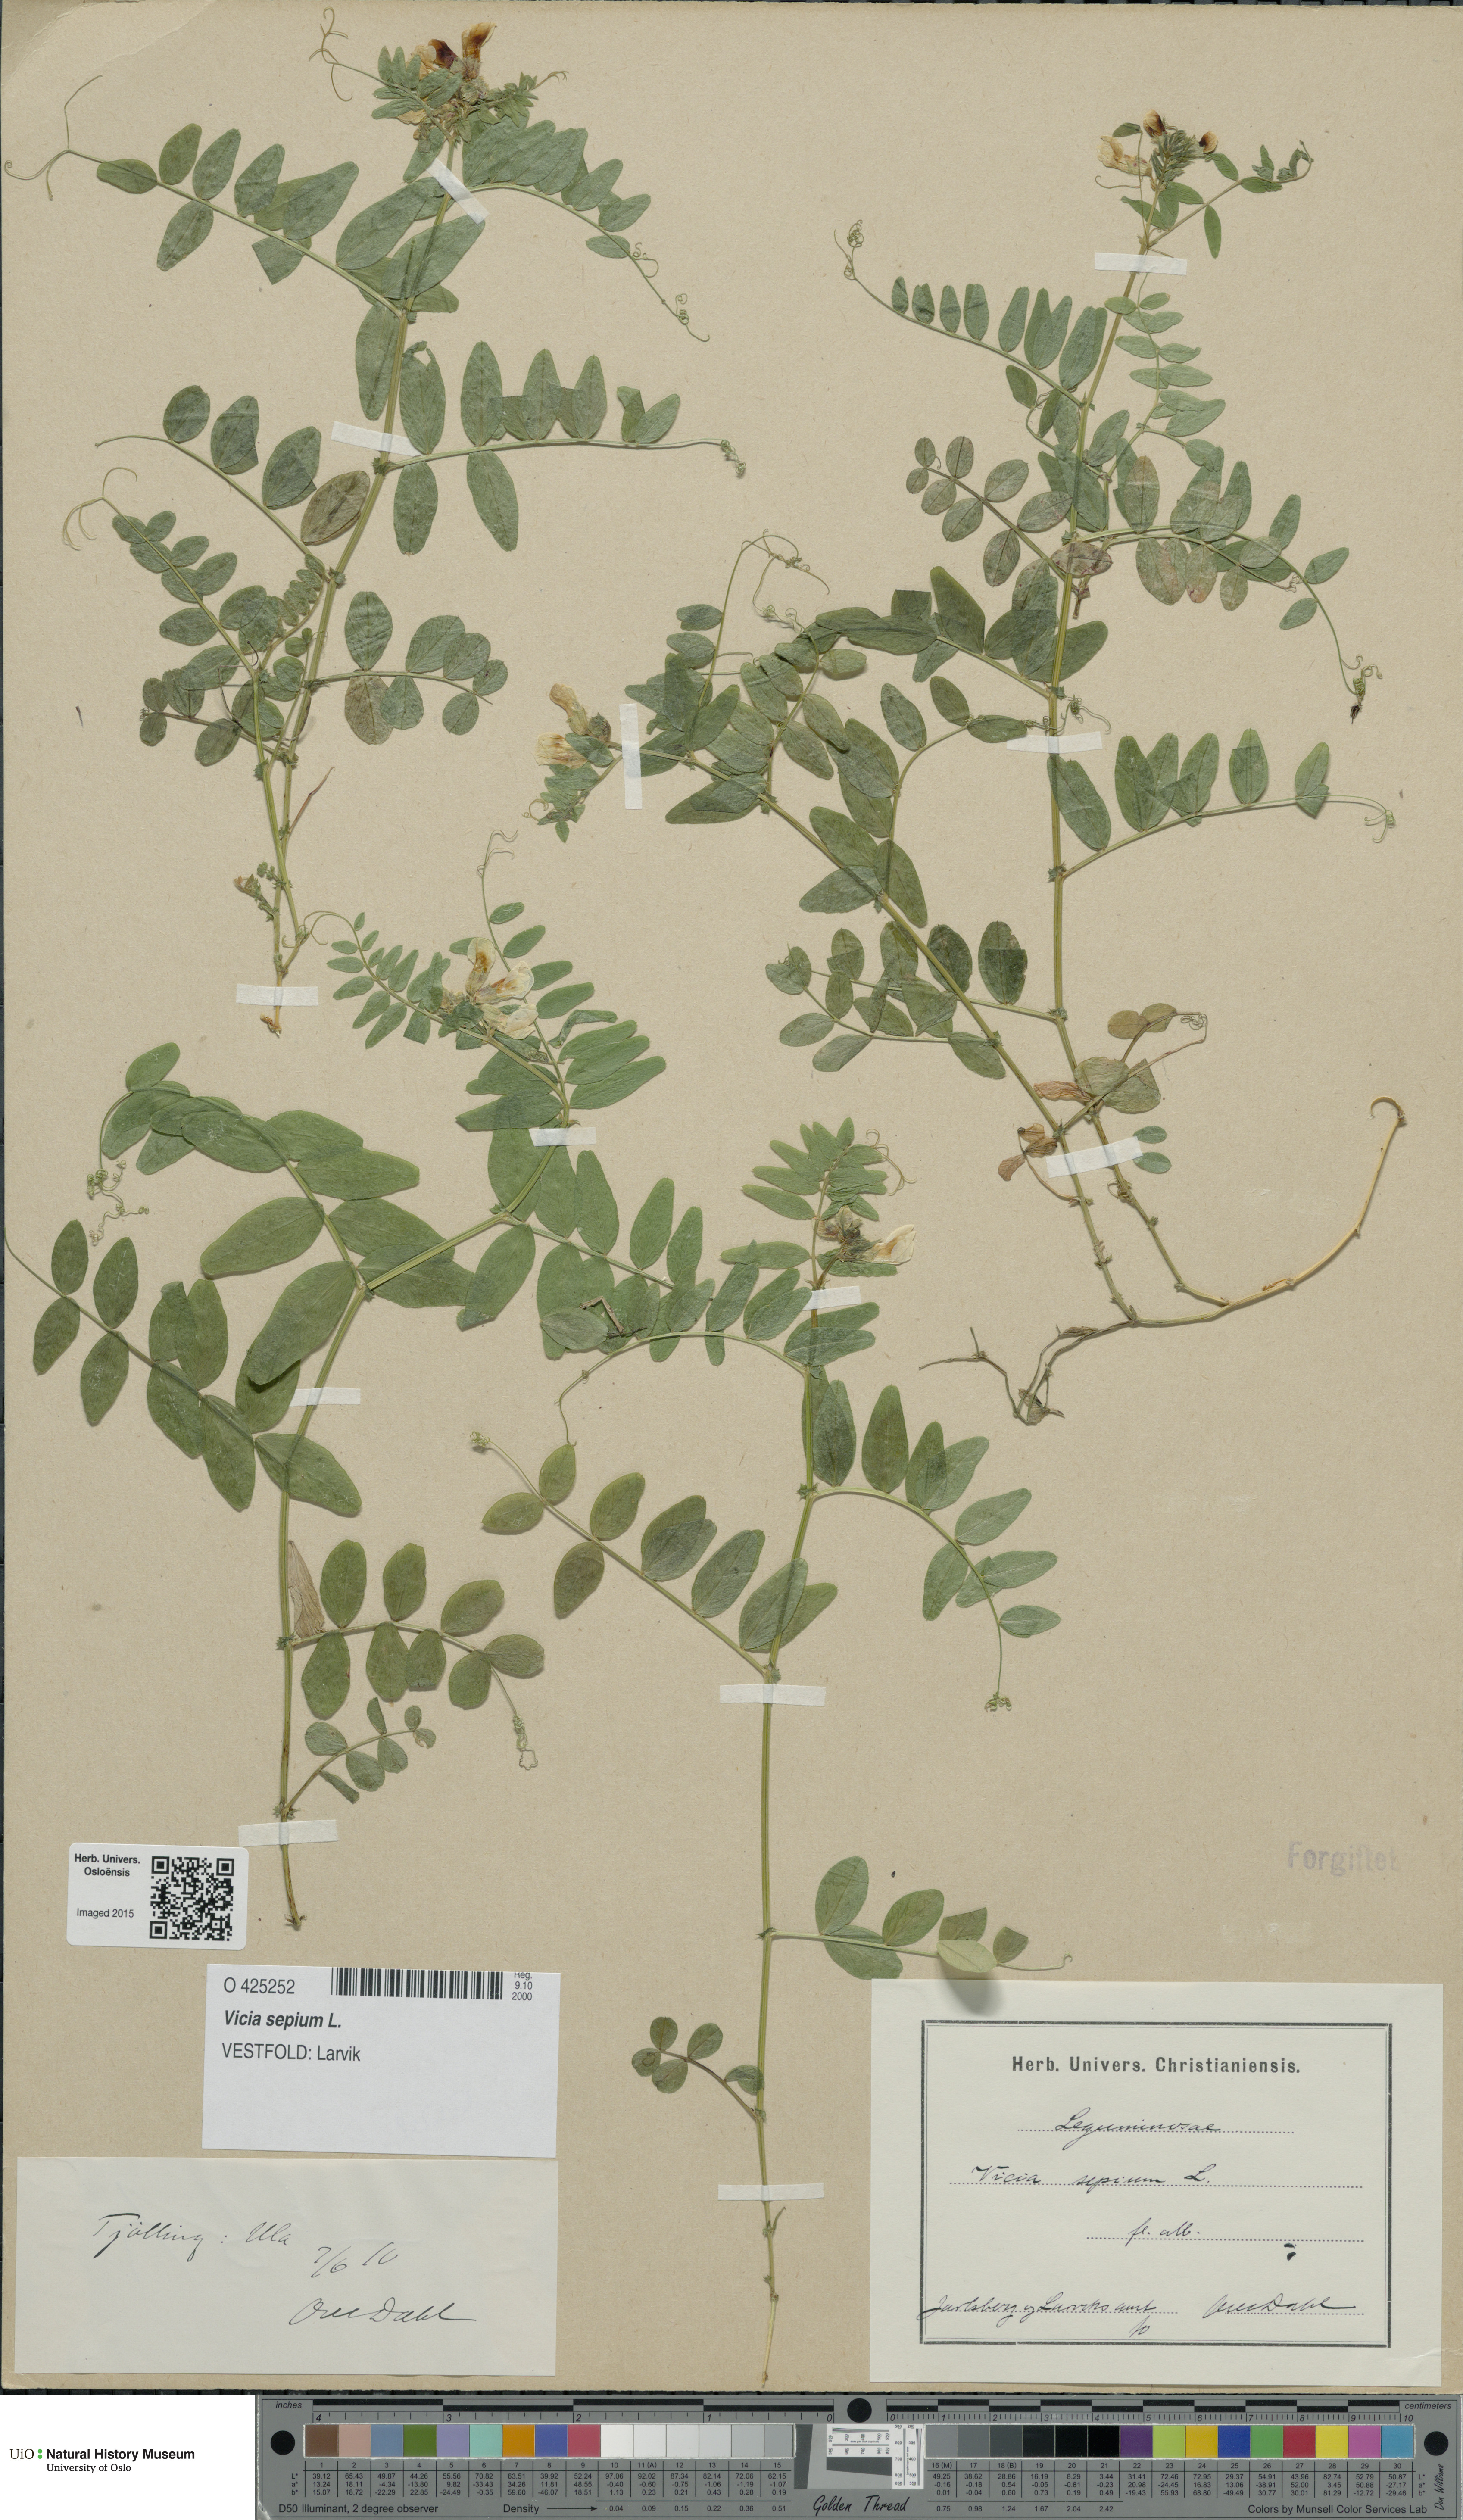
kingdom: Plantae
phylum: Tracheophyta
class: Magnoliopsida
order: Fabales
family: Fabaceae
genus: Vicia
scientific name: Vicia sepium
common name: Bush vetch
